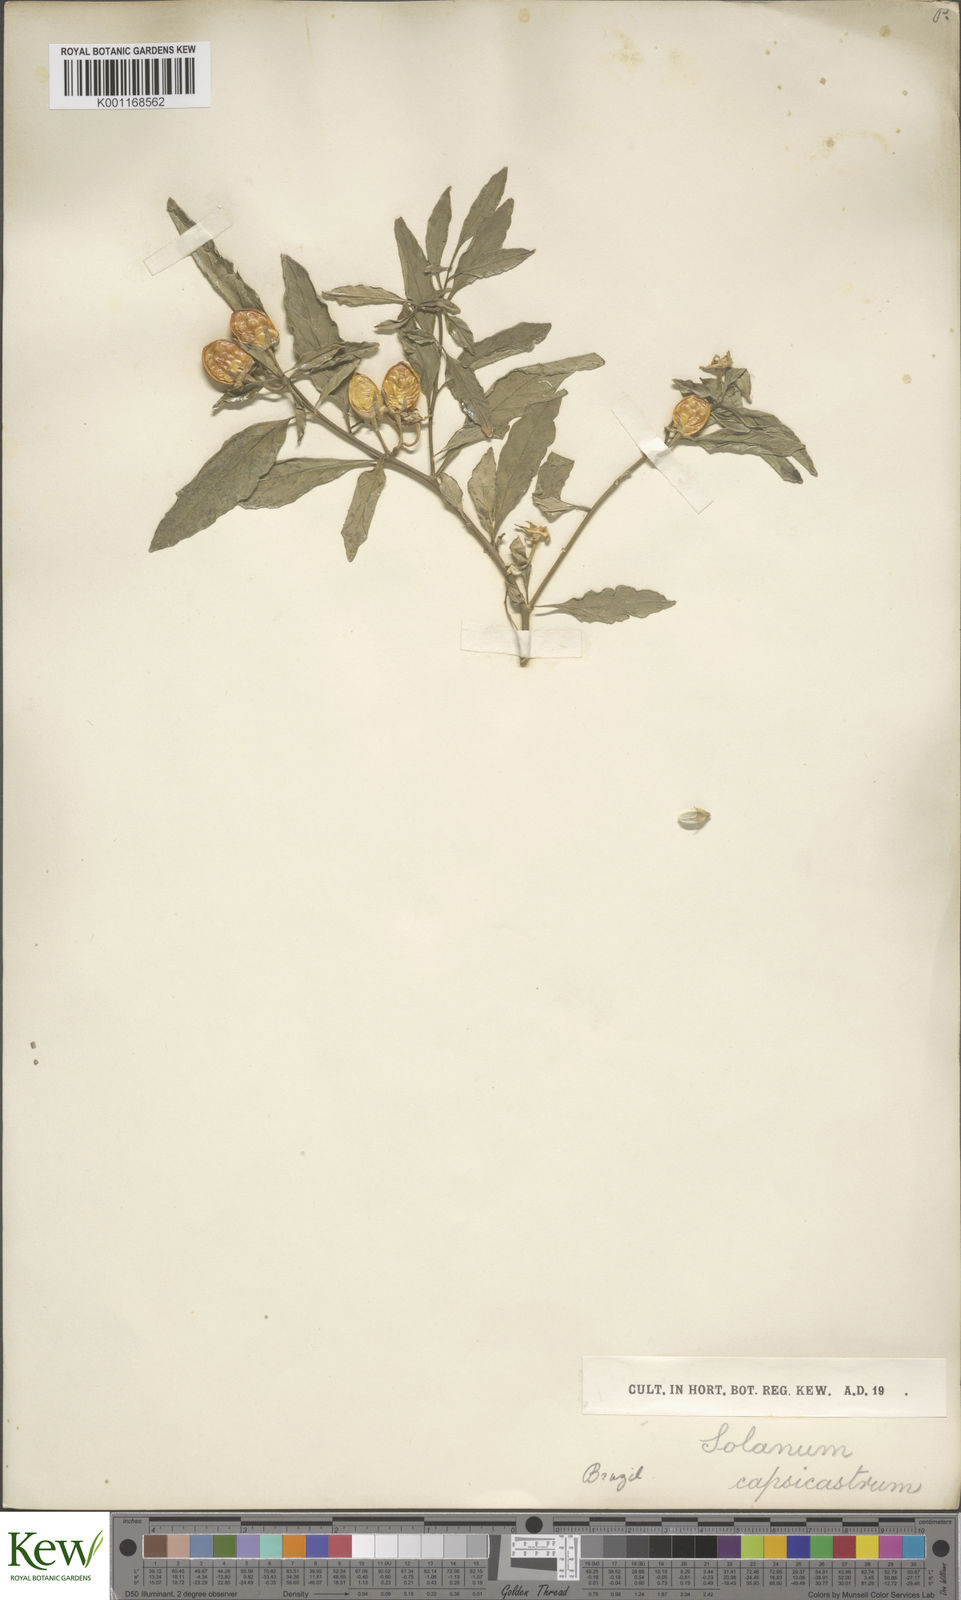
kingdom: Plantae
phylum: Tracheophyta
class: Magnoliopsida
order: Solanales
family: Solanaceae
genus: Solanum
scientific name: Solanum pseudocapsicum
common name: Jerusalem cherry
